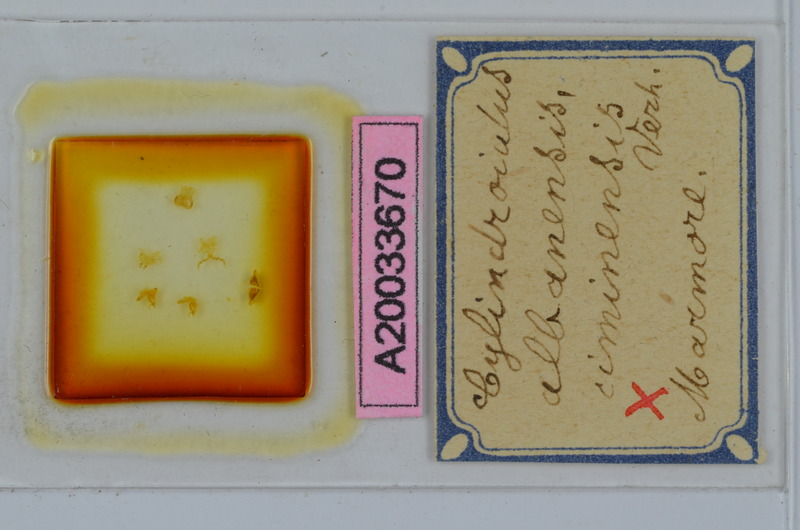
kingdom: Animalia
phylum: Arthropoda
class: Diplopoda
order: Julida
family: Julidae
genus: Cylindroiulus
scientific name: Cylindroiulus albanensis
